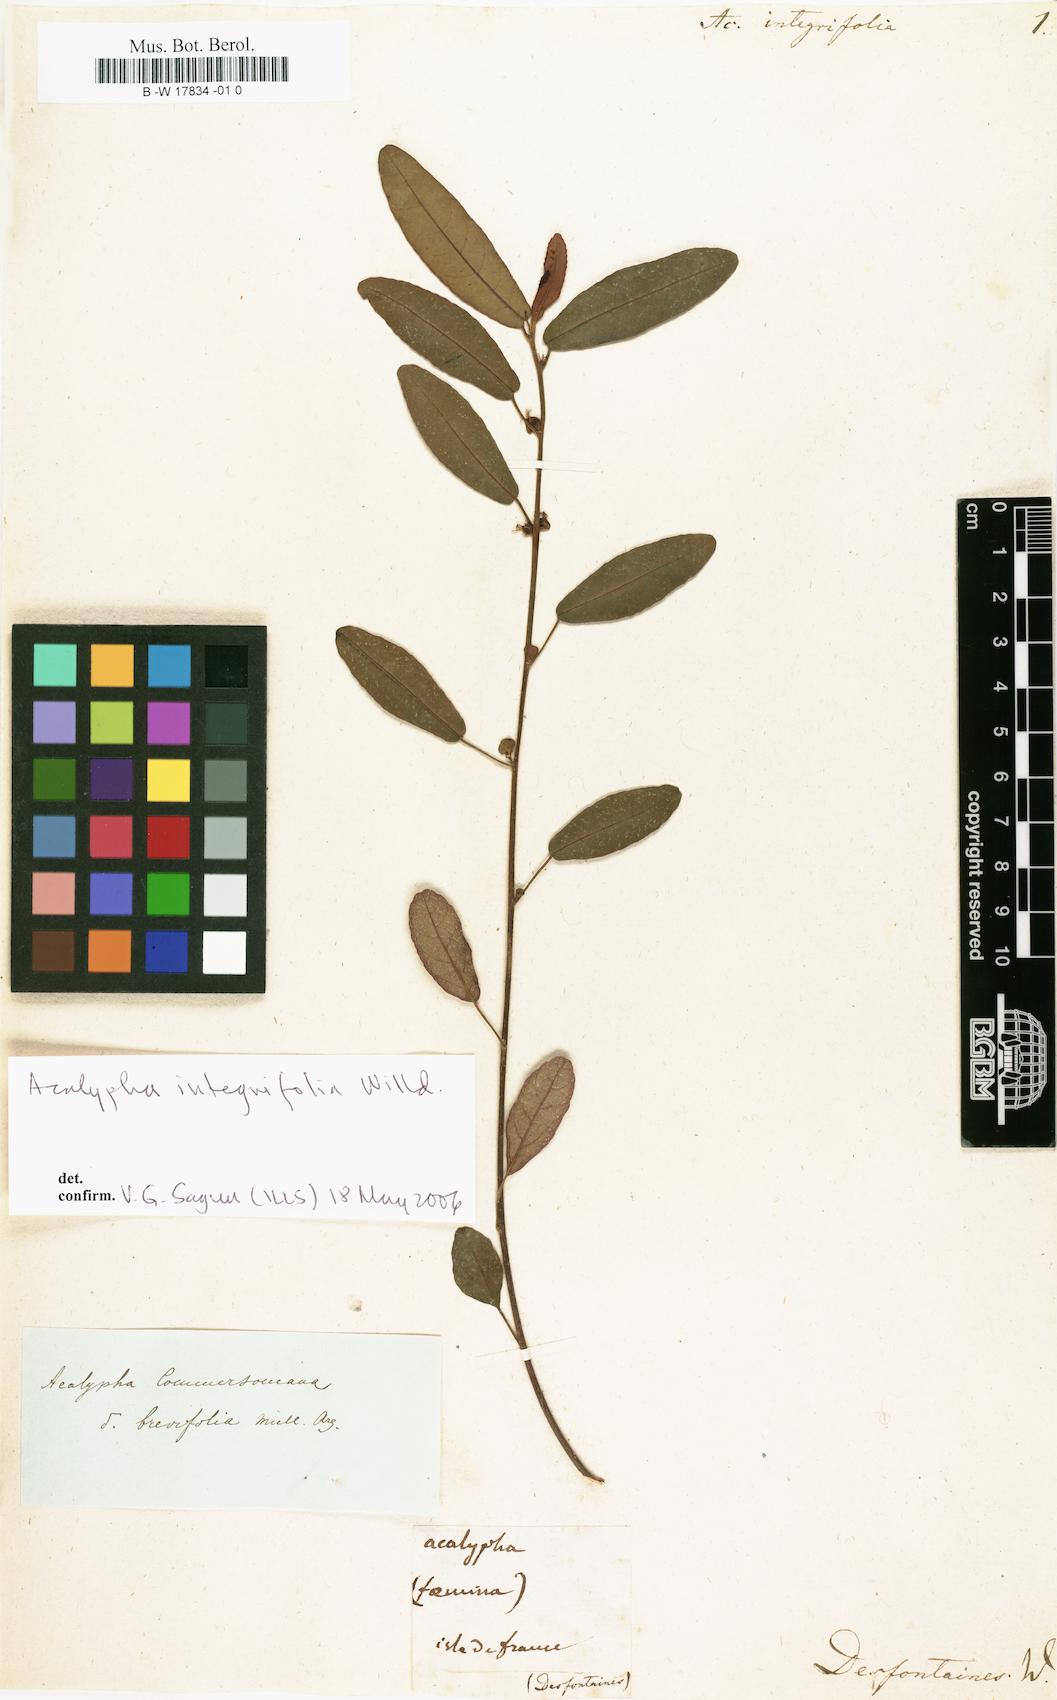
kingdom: Plantae
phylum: Tracheophyta
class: Magnoliopsida
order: Malpighiales
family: Euphorbiaceae
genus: Acalypha
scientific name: Acalypha integrifolia
